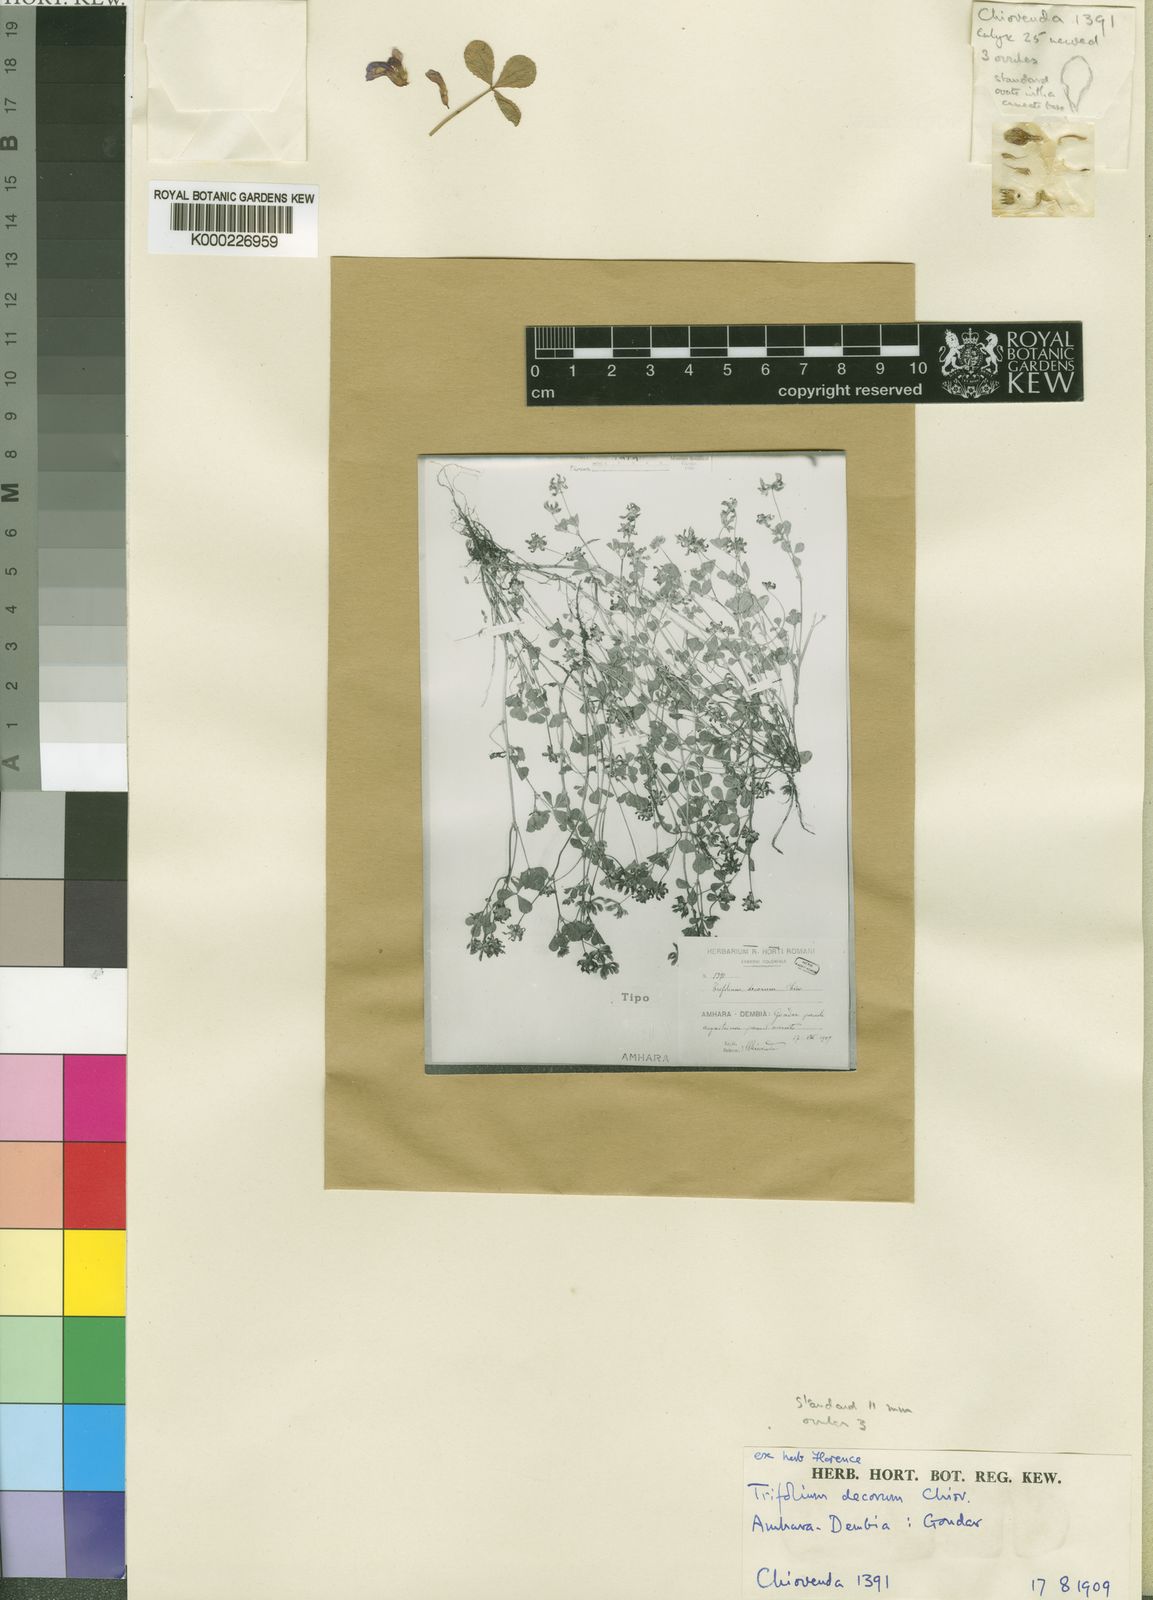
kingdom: Plantae
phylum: Tracheophyta
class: Magnoliopsida
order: Fabales
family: Fabaceae
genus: Trifolium
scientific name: Trifolium decorum
